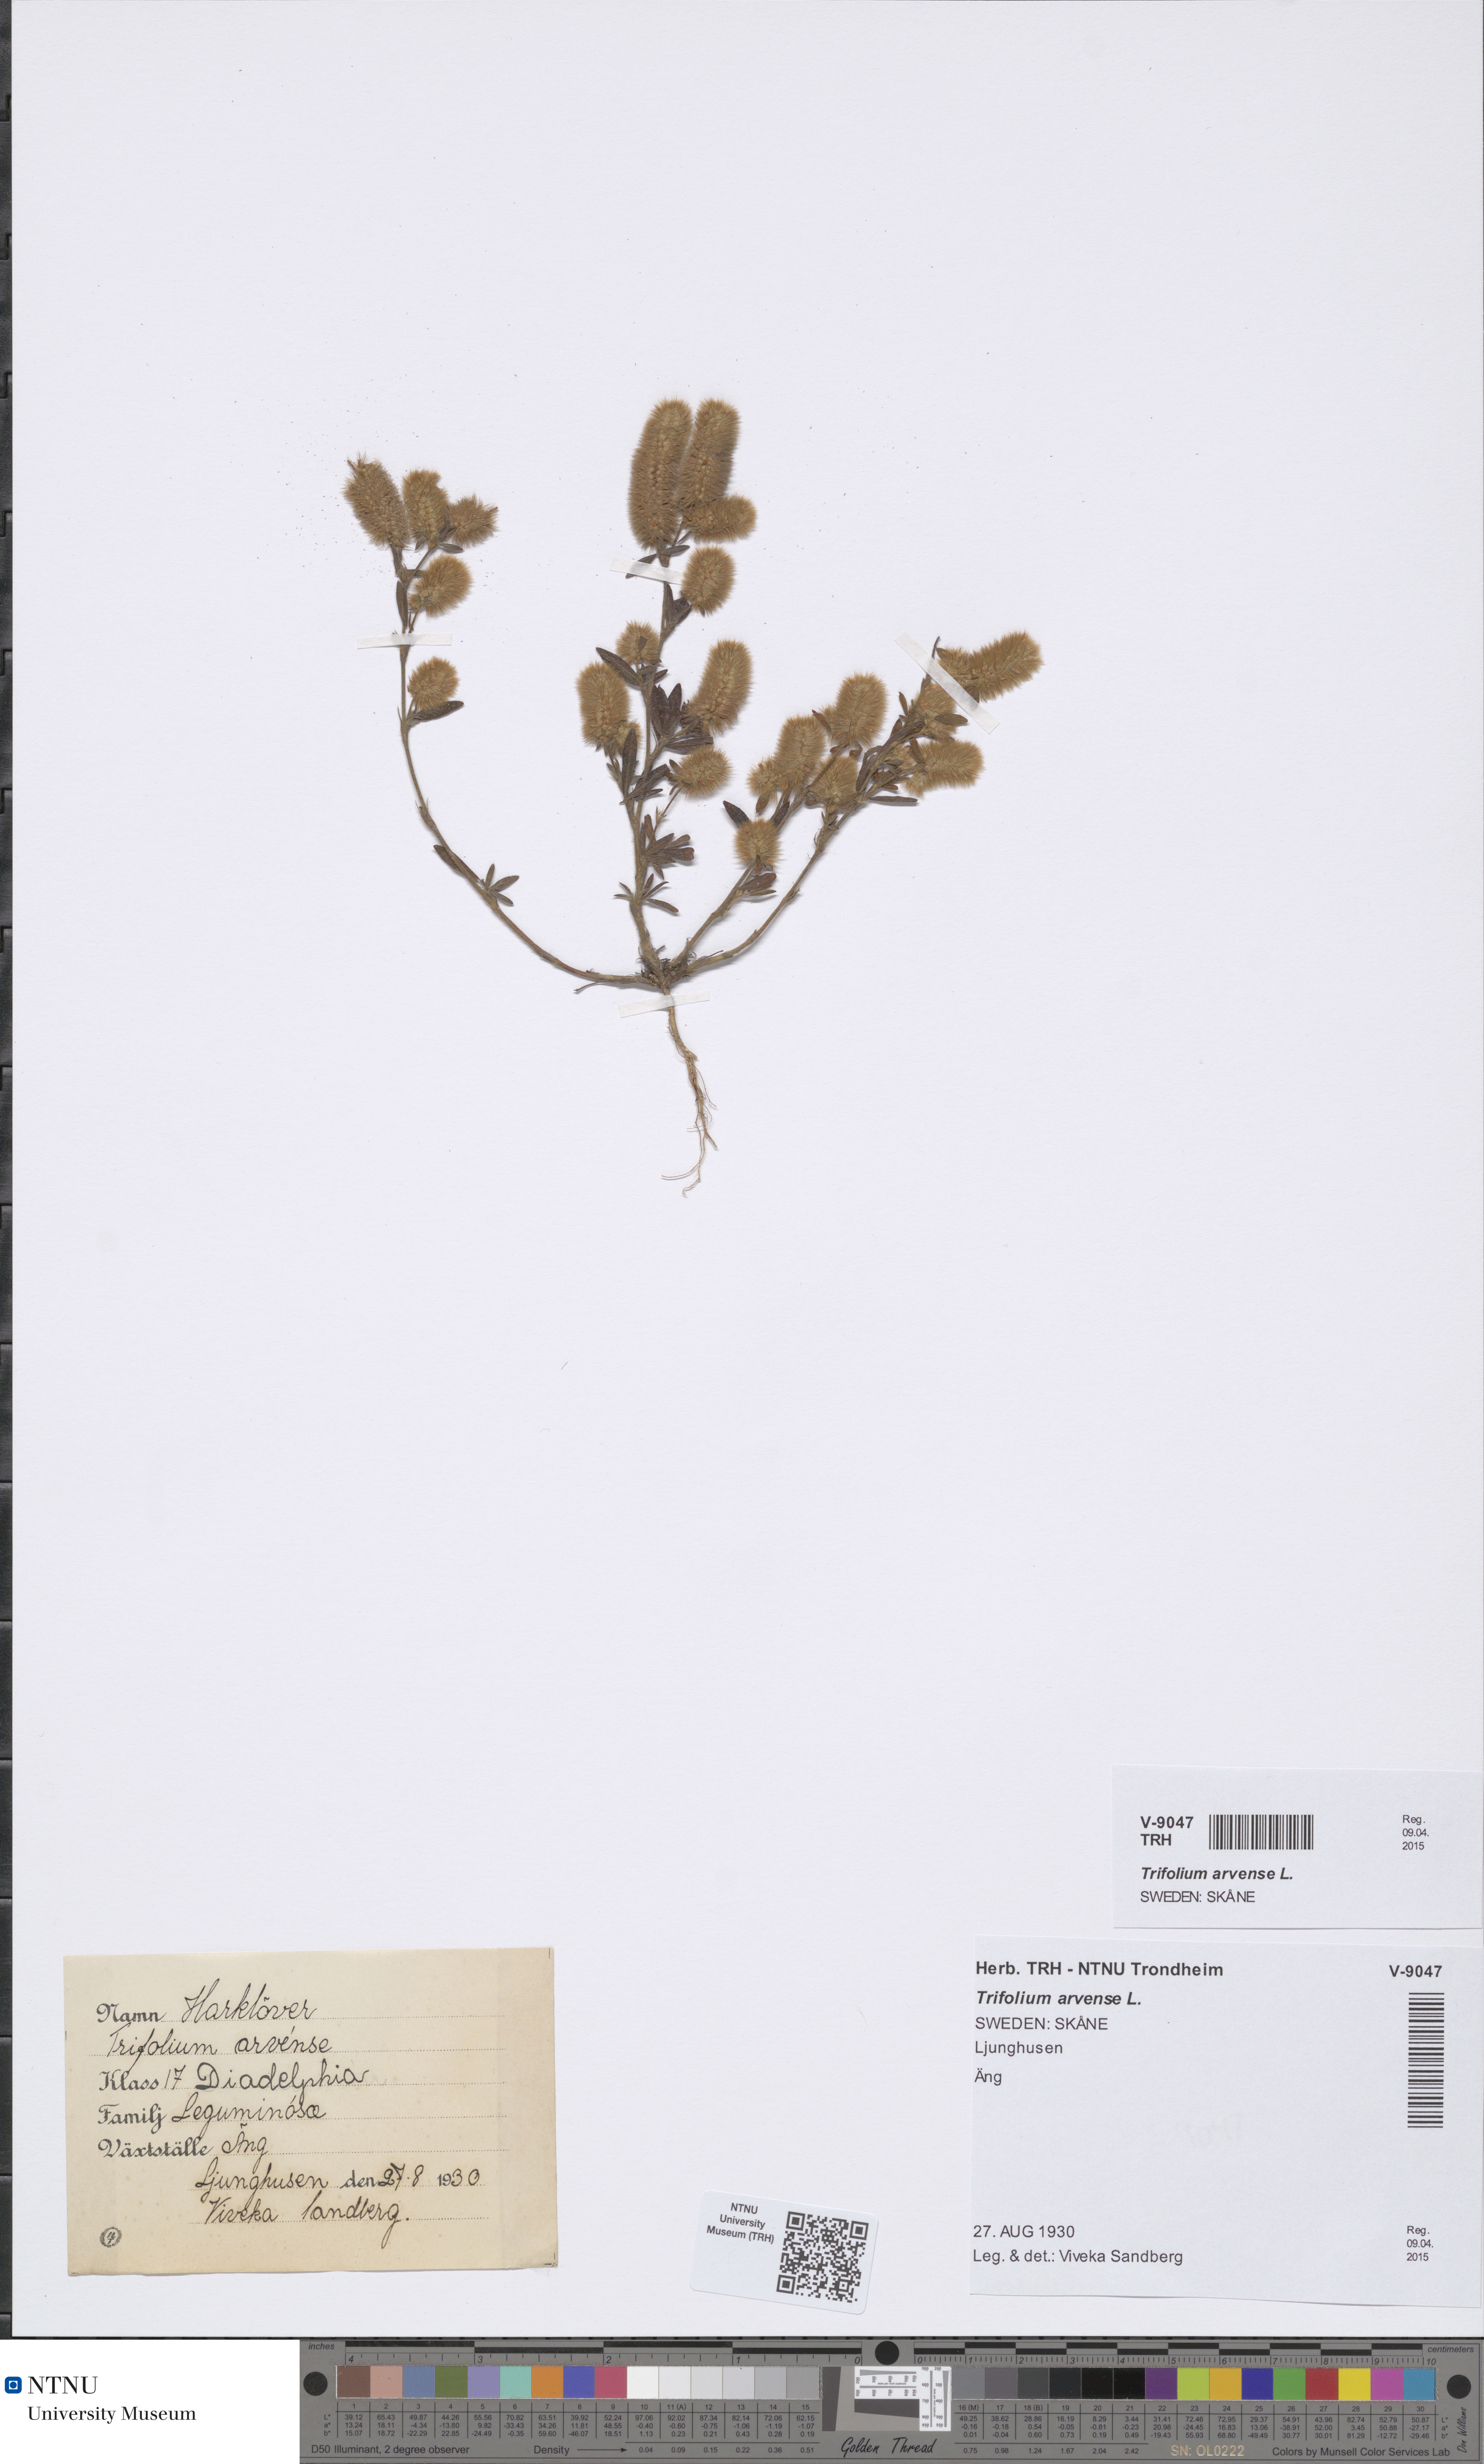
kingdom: Plantae
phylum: Tracheophyta
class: Magnoliopsida
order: Fabales
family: Fabaceae
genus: Trifolium
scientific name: Trifolium arvense
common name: Hare's-foot clover
